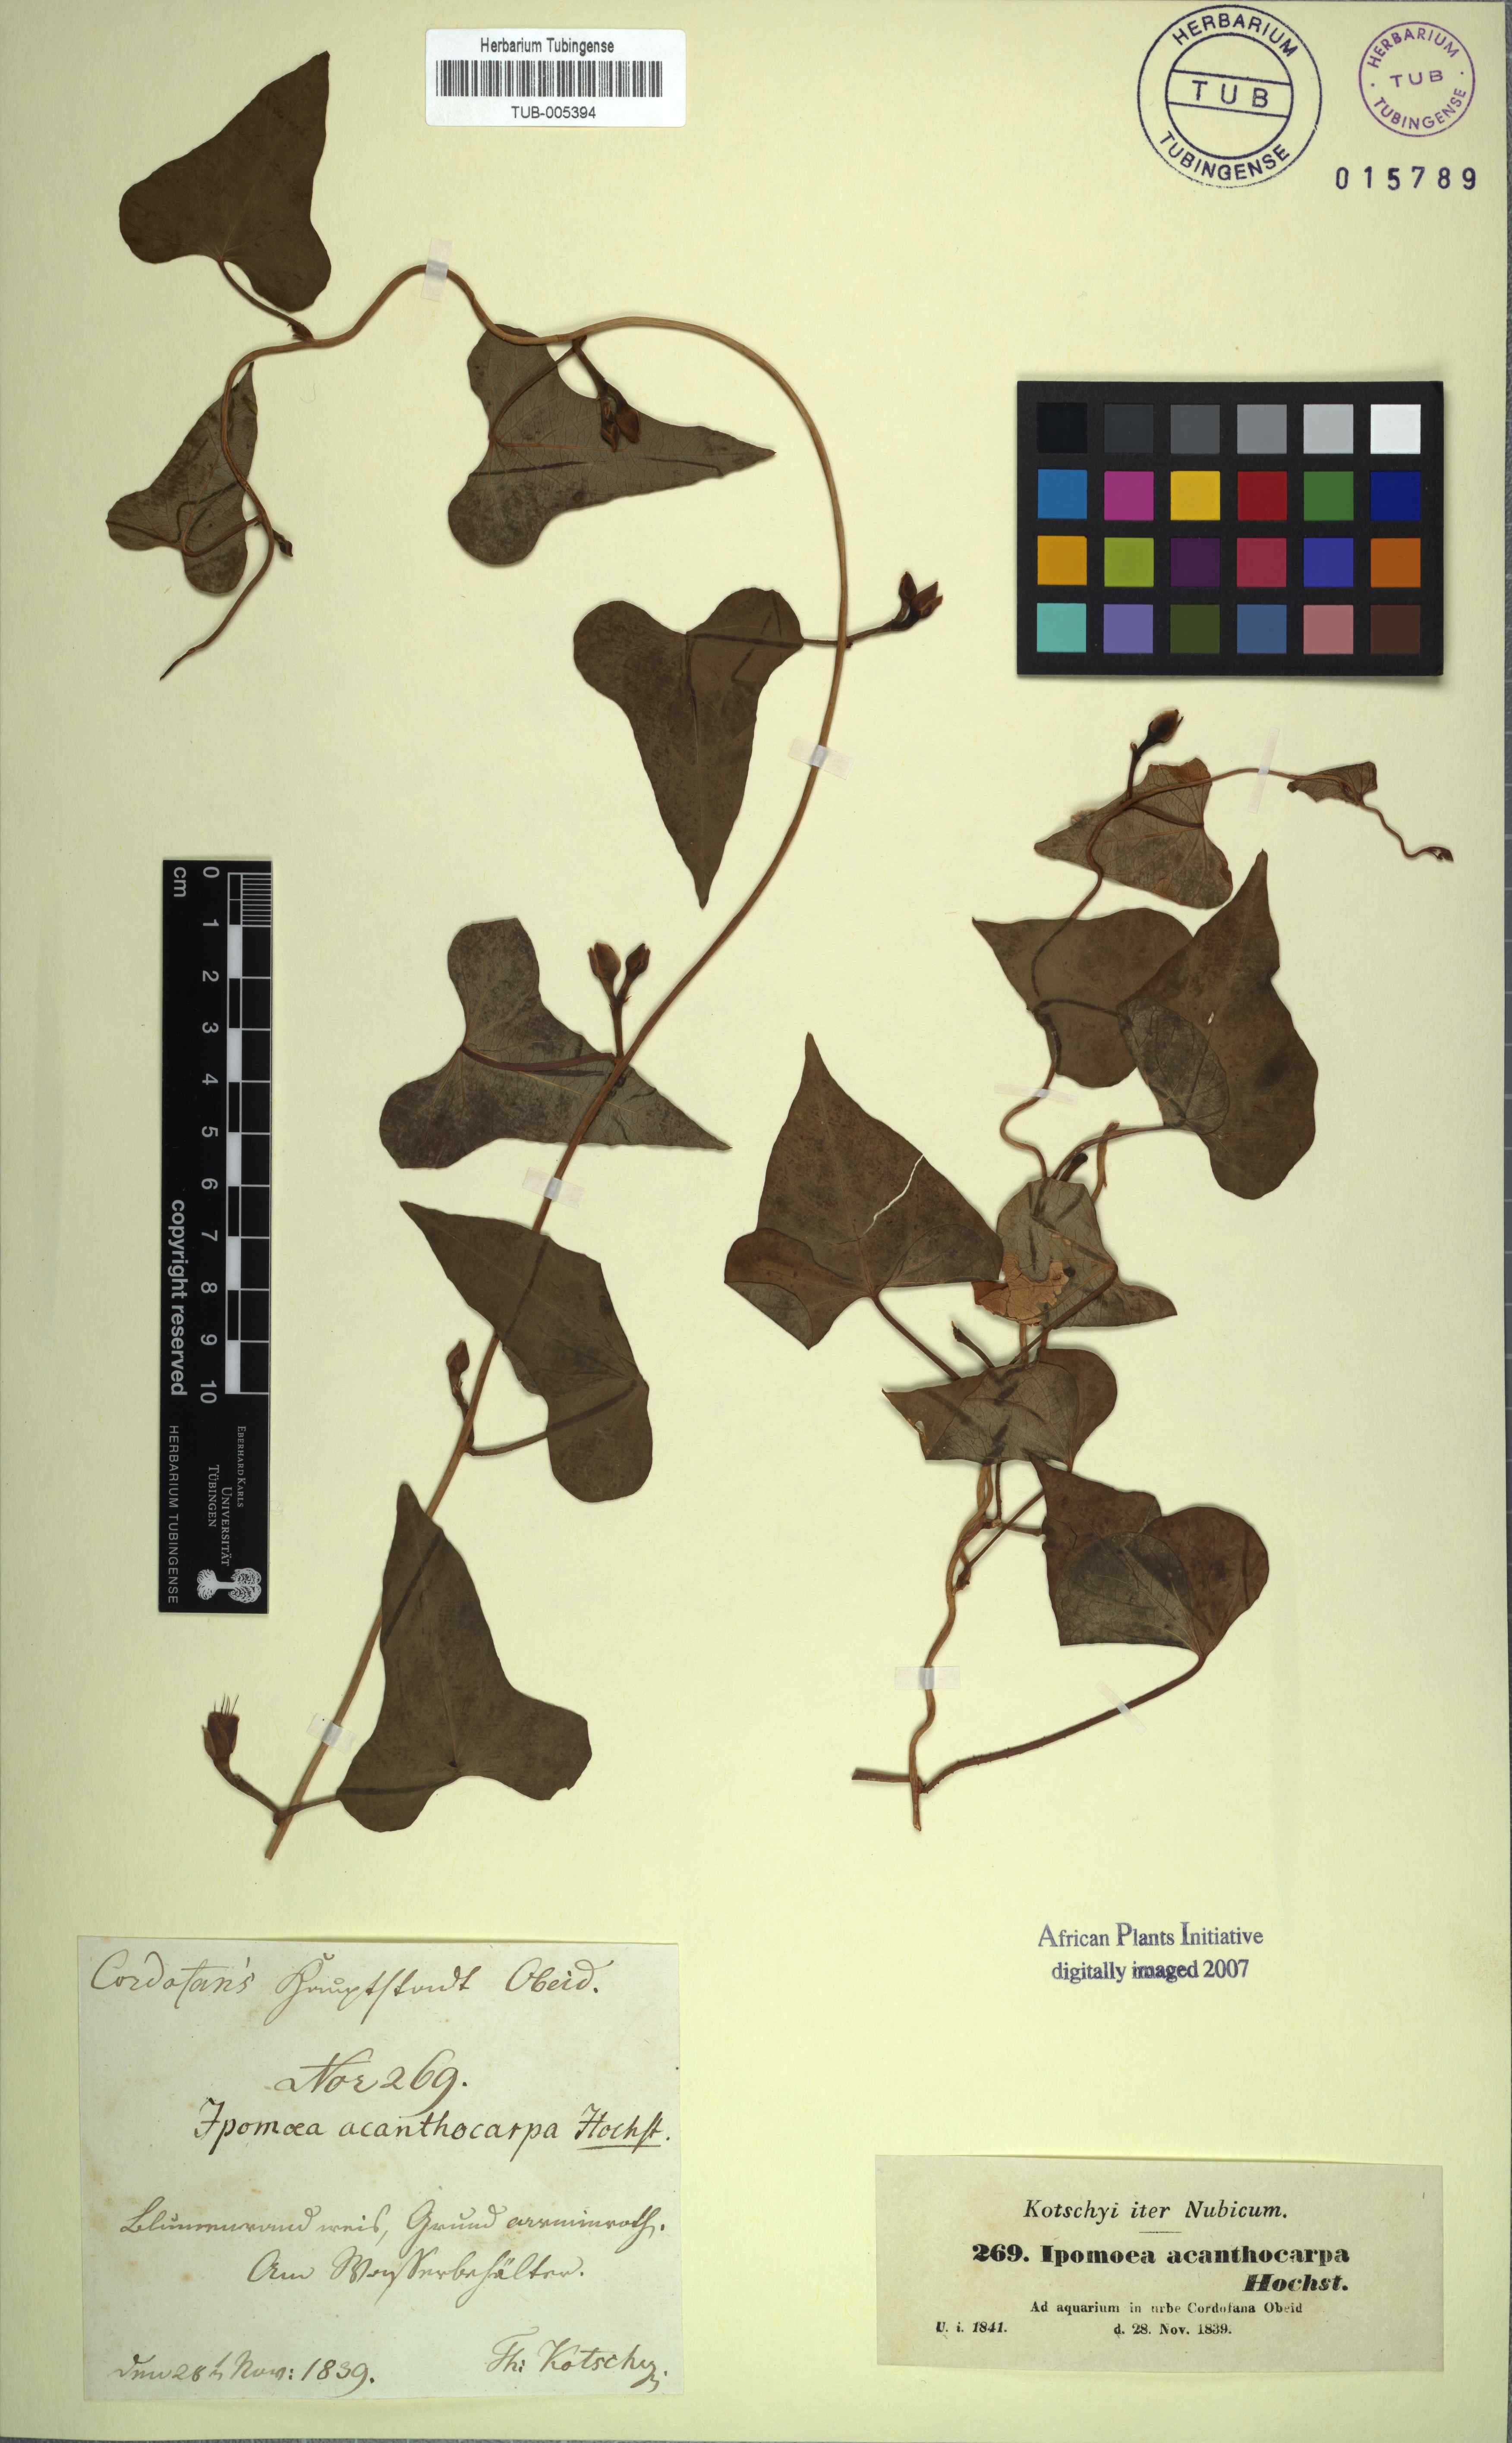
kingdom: Plantae
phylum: Tracheophyta
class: Magnoliopsida
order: Solanales
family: Convolvulaceae
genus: Ipomoea
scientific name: Ipomoea acanthocarpa
